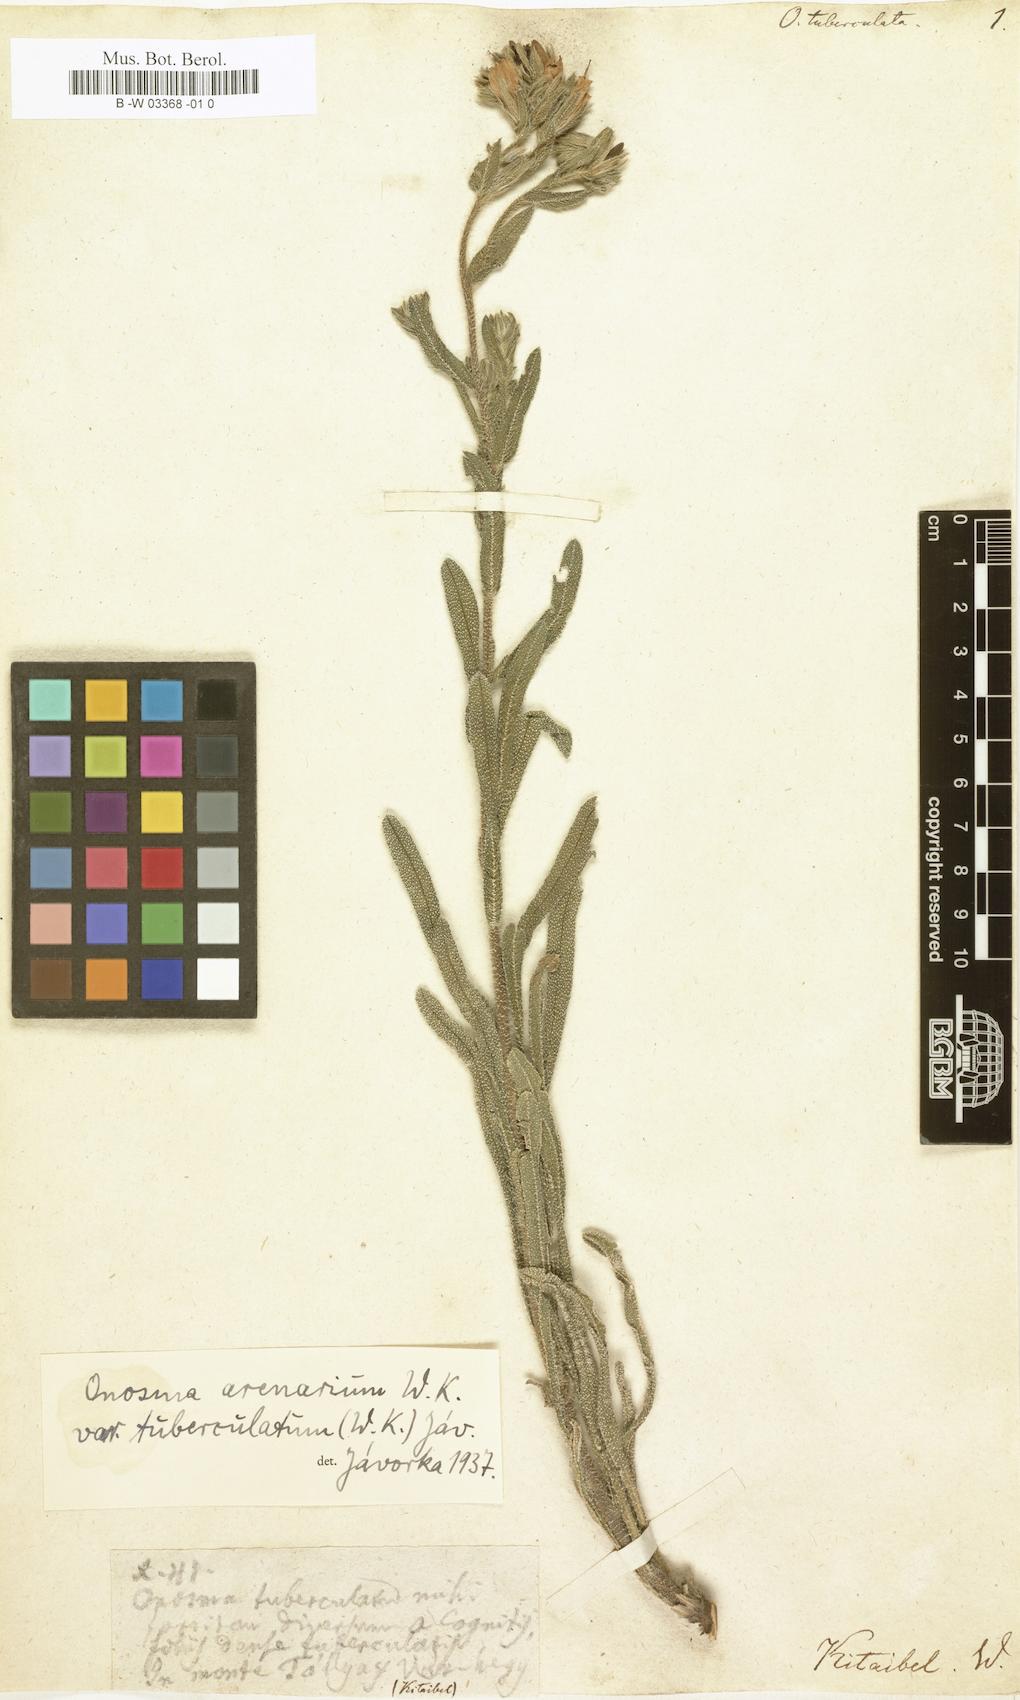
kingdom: Plantae
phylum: Tracheophyta
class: Magnoliopsida
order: Boraginales
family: Boraginaceae
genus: Onosma
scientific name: Onosma tuberculata
